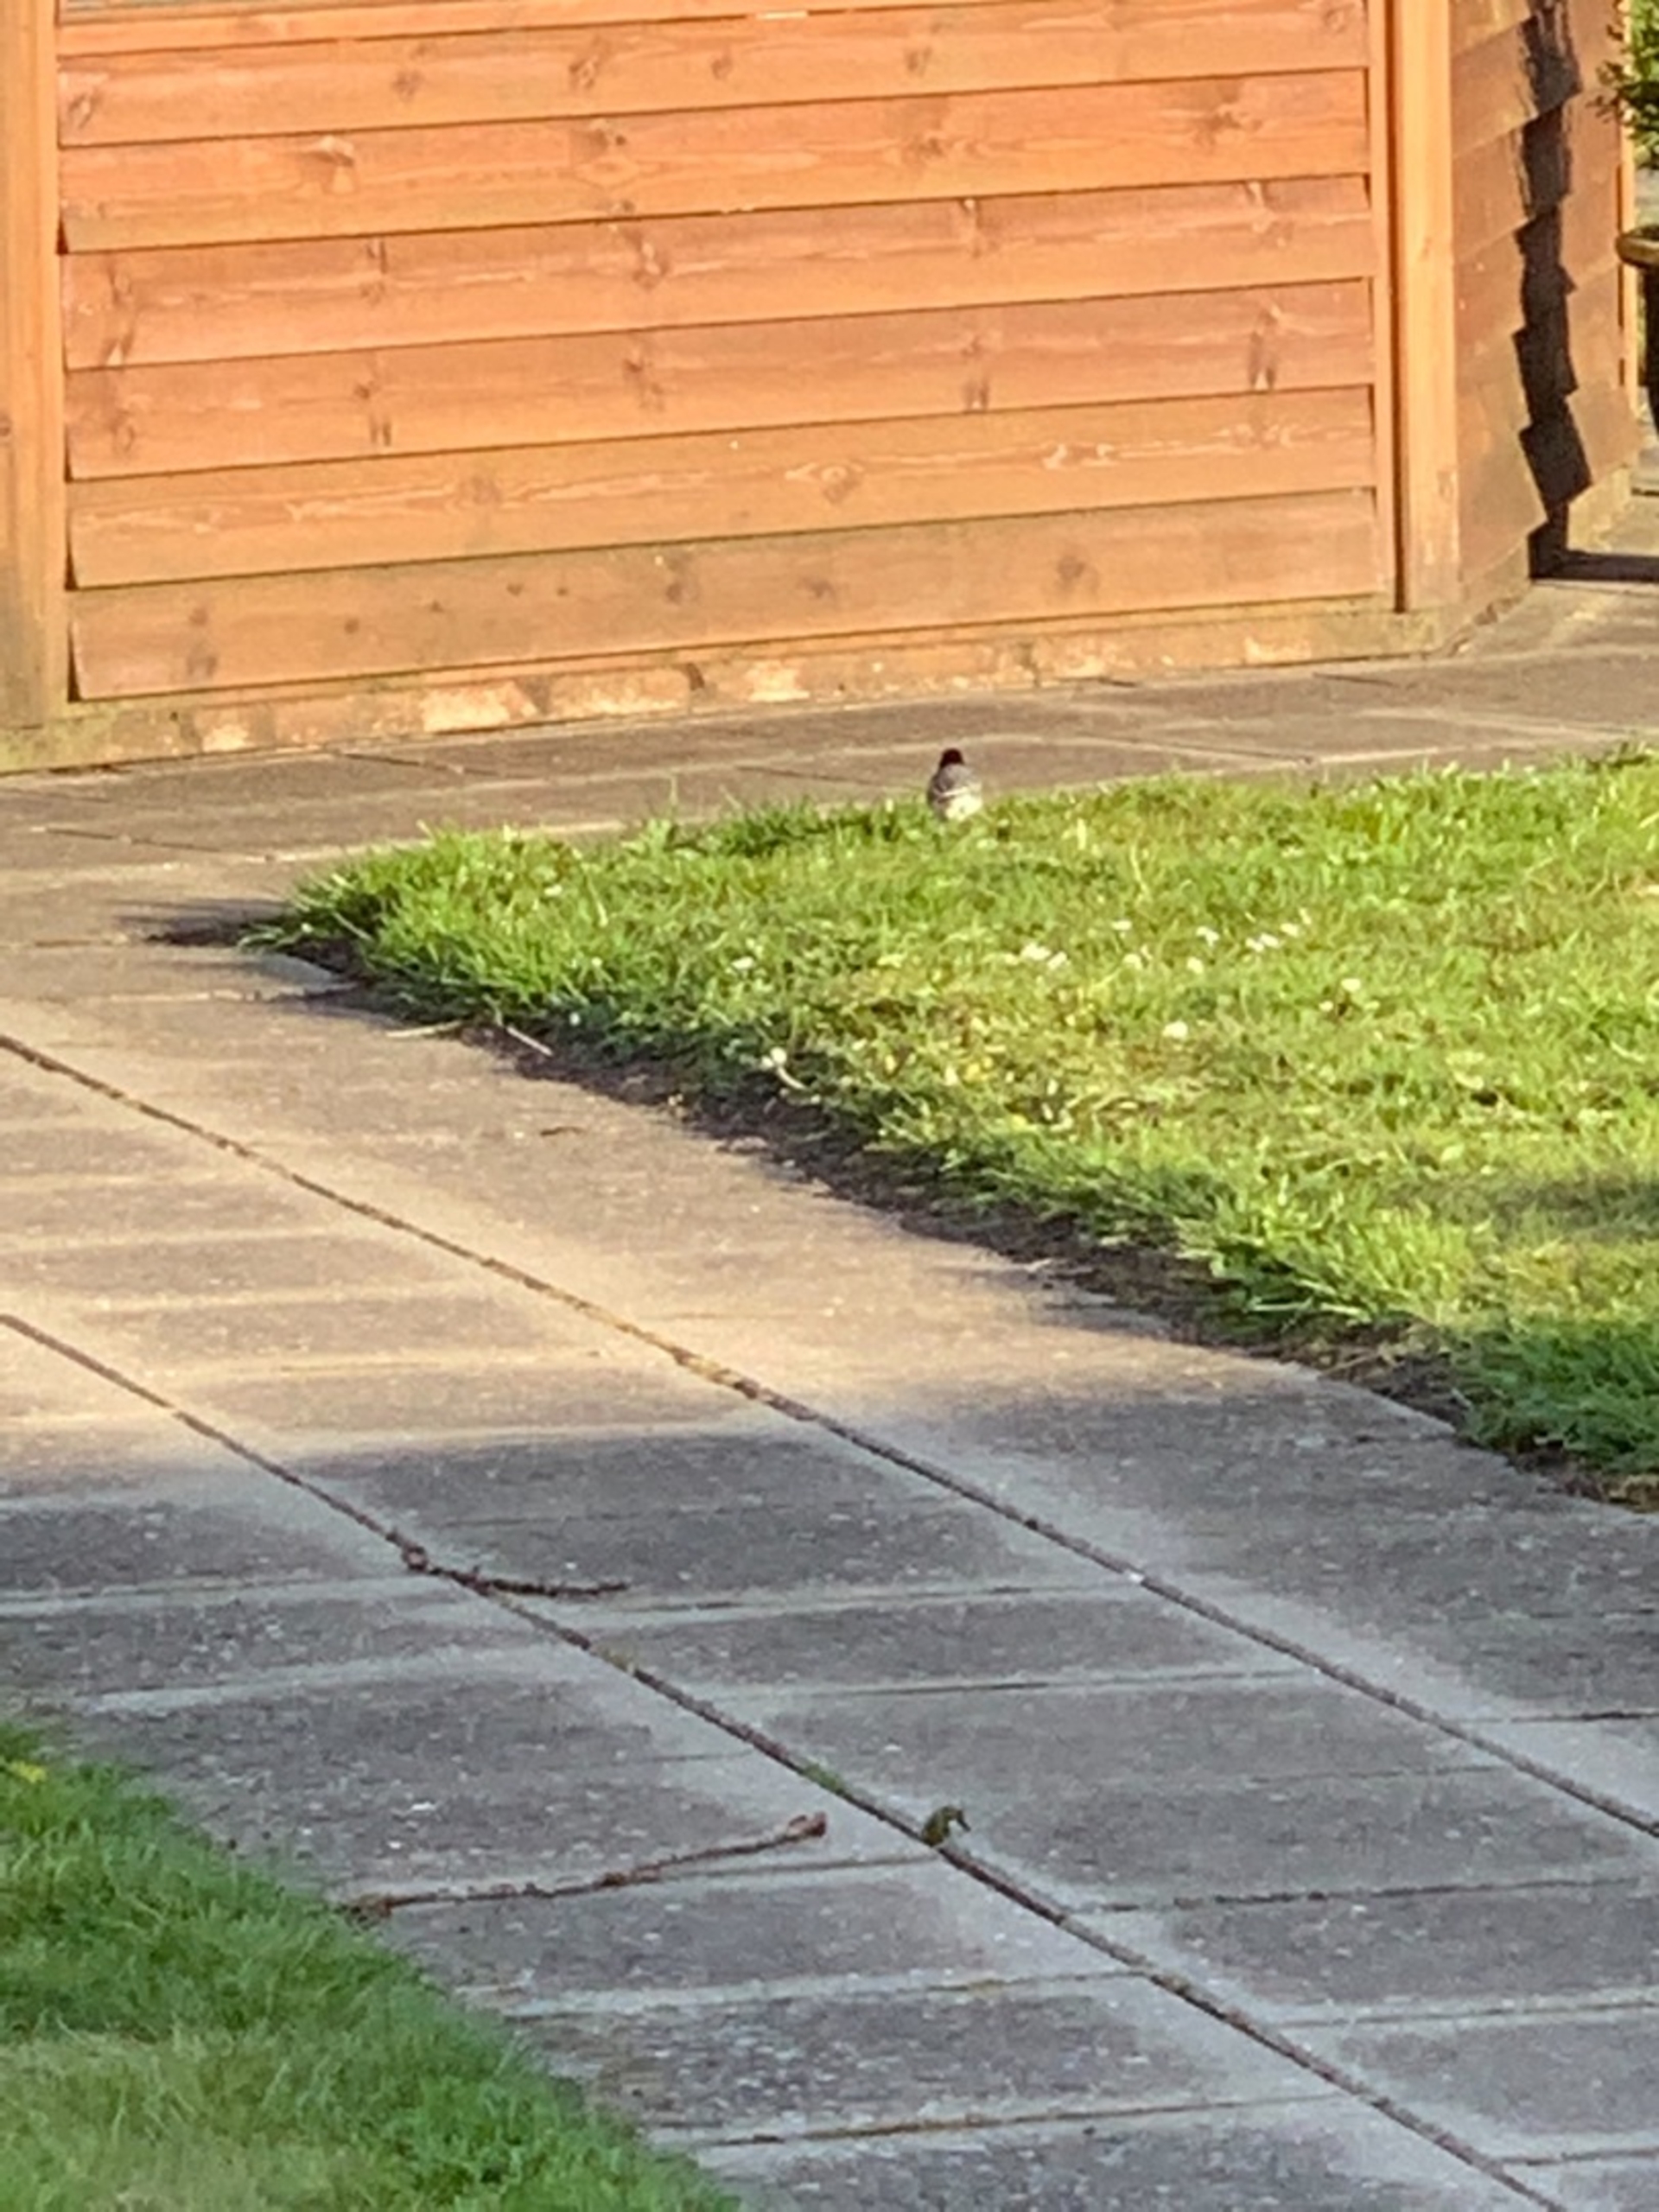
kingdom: Animalia
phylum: Chordata
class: Aves
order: Passeriformes
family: Motacillidae
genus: Motacilla
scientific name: Motacilla alba
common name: Hvid vipstjert
